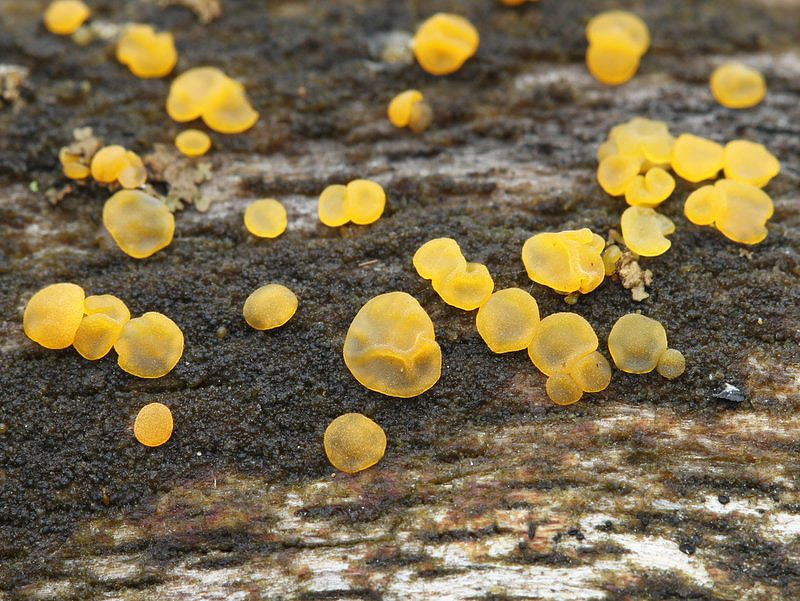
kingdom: Fungi
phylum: Basidiomycota
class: Dacrymycetes
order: Dacrymycetales
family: Dacrymycetaceae
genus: Dacrymyces
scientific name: Dacrymyces lacrymalis
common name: rynket tåresvamp
